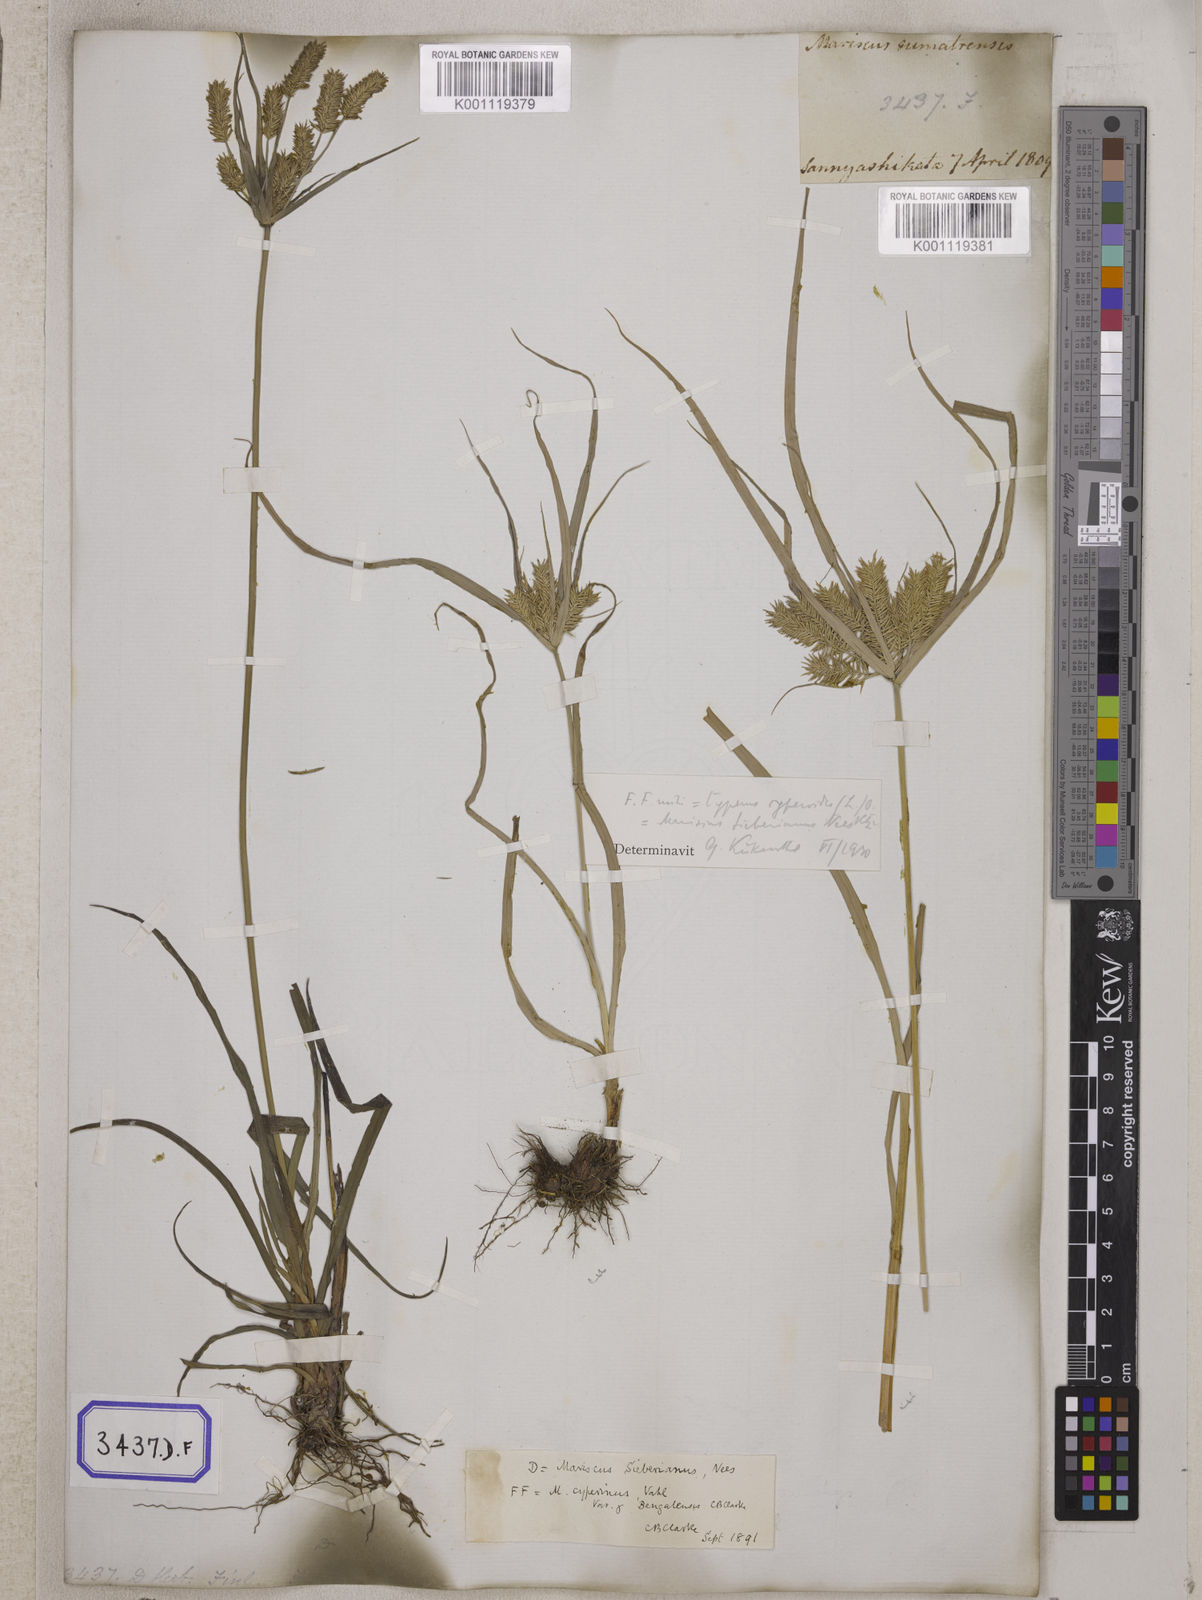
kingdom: Plantae
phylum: Tracheophyta
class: Liliopsida
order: Poales
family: Cyperaceae
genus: Mariscus
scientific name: Mariscus
